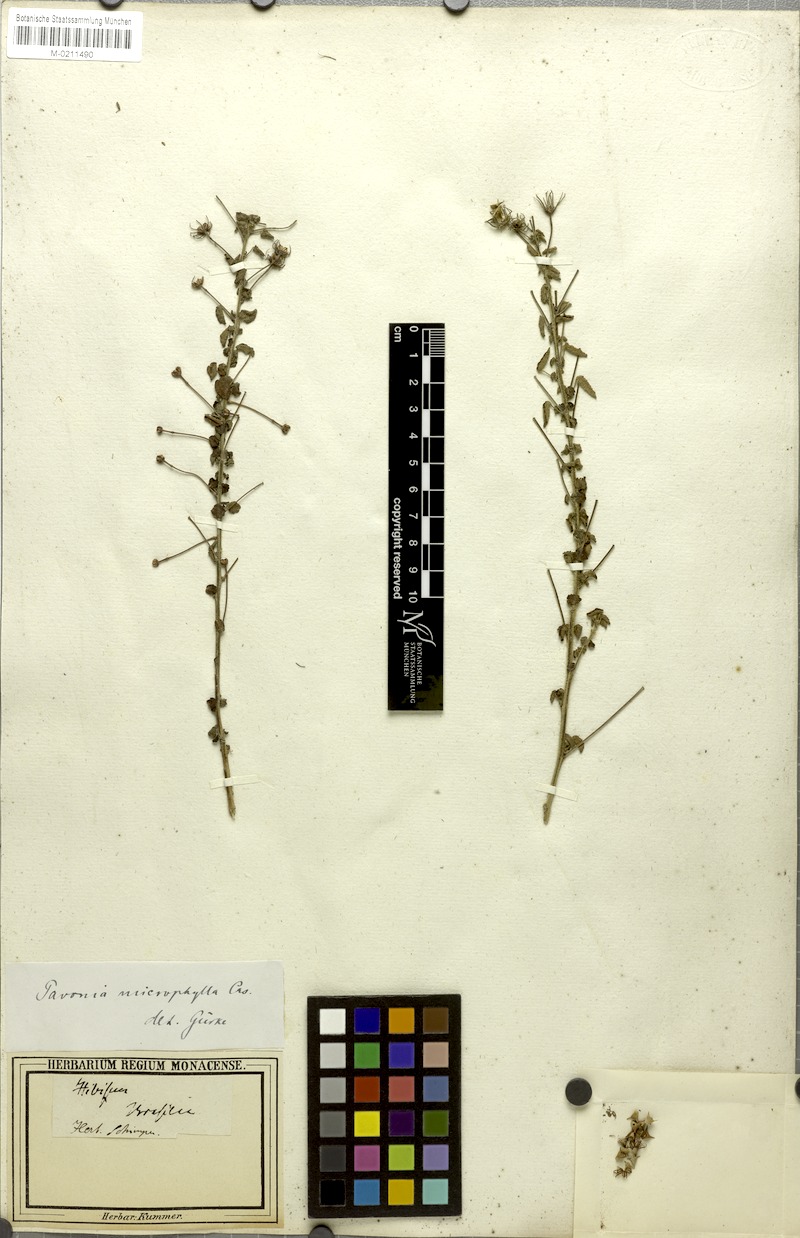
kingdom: Plantae
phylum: Tracheophyta
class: Magnoliopsida
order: Malvales
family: Malvaceae
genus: Pavonia
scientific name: Pavonia martii
